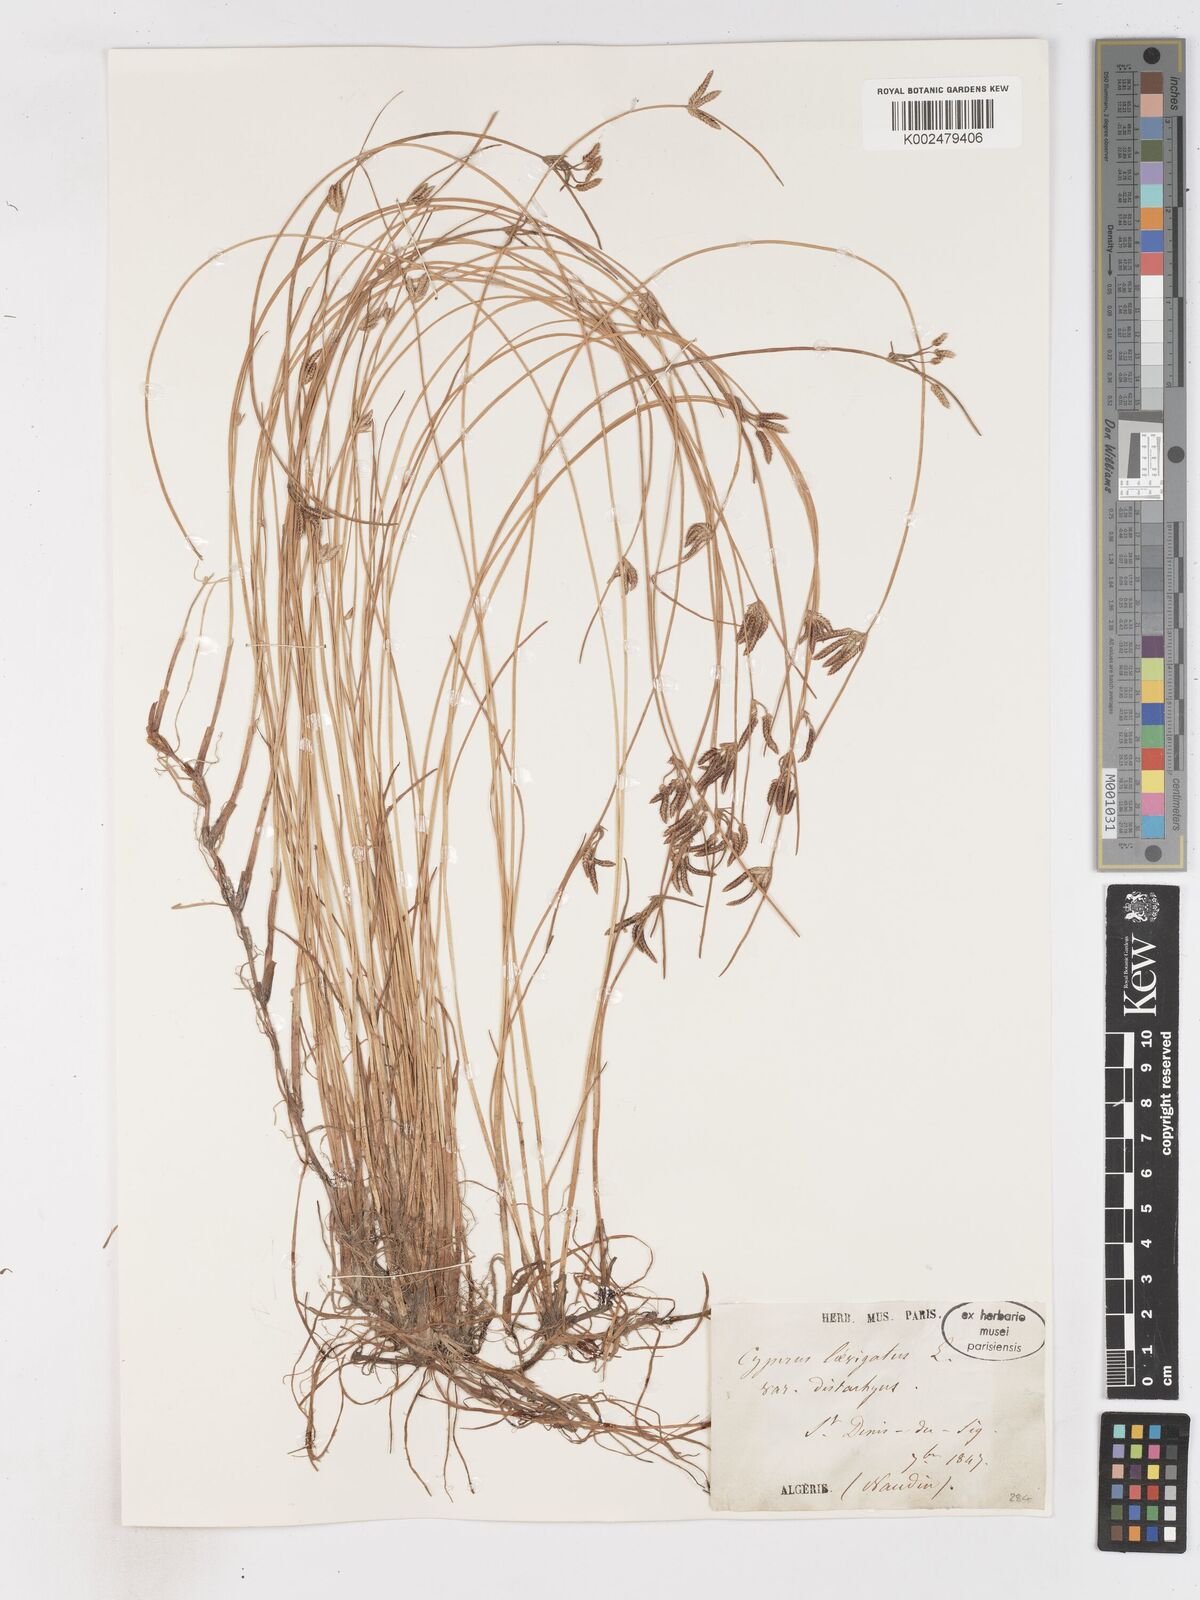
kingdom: Plantae
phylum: Tracheophyta
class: Liliopsida
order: Poales
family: Cyperaceae
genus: Cyperus
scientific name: Cyperus laevigatus
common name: Smooth flat sedge
